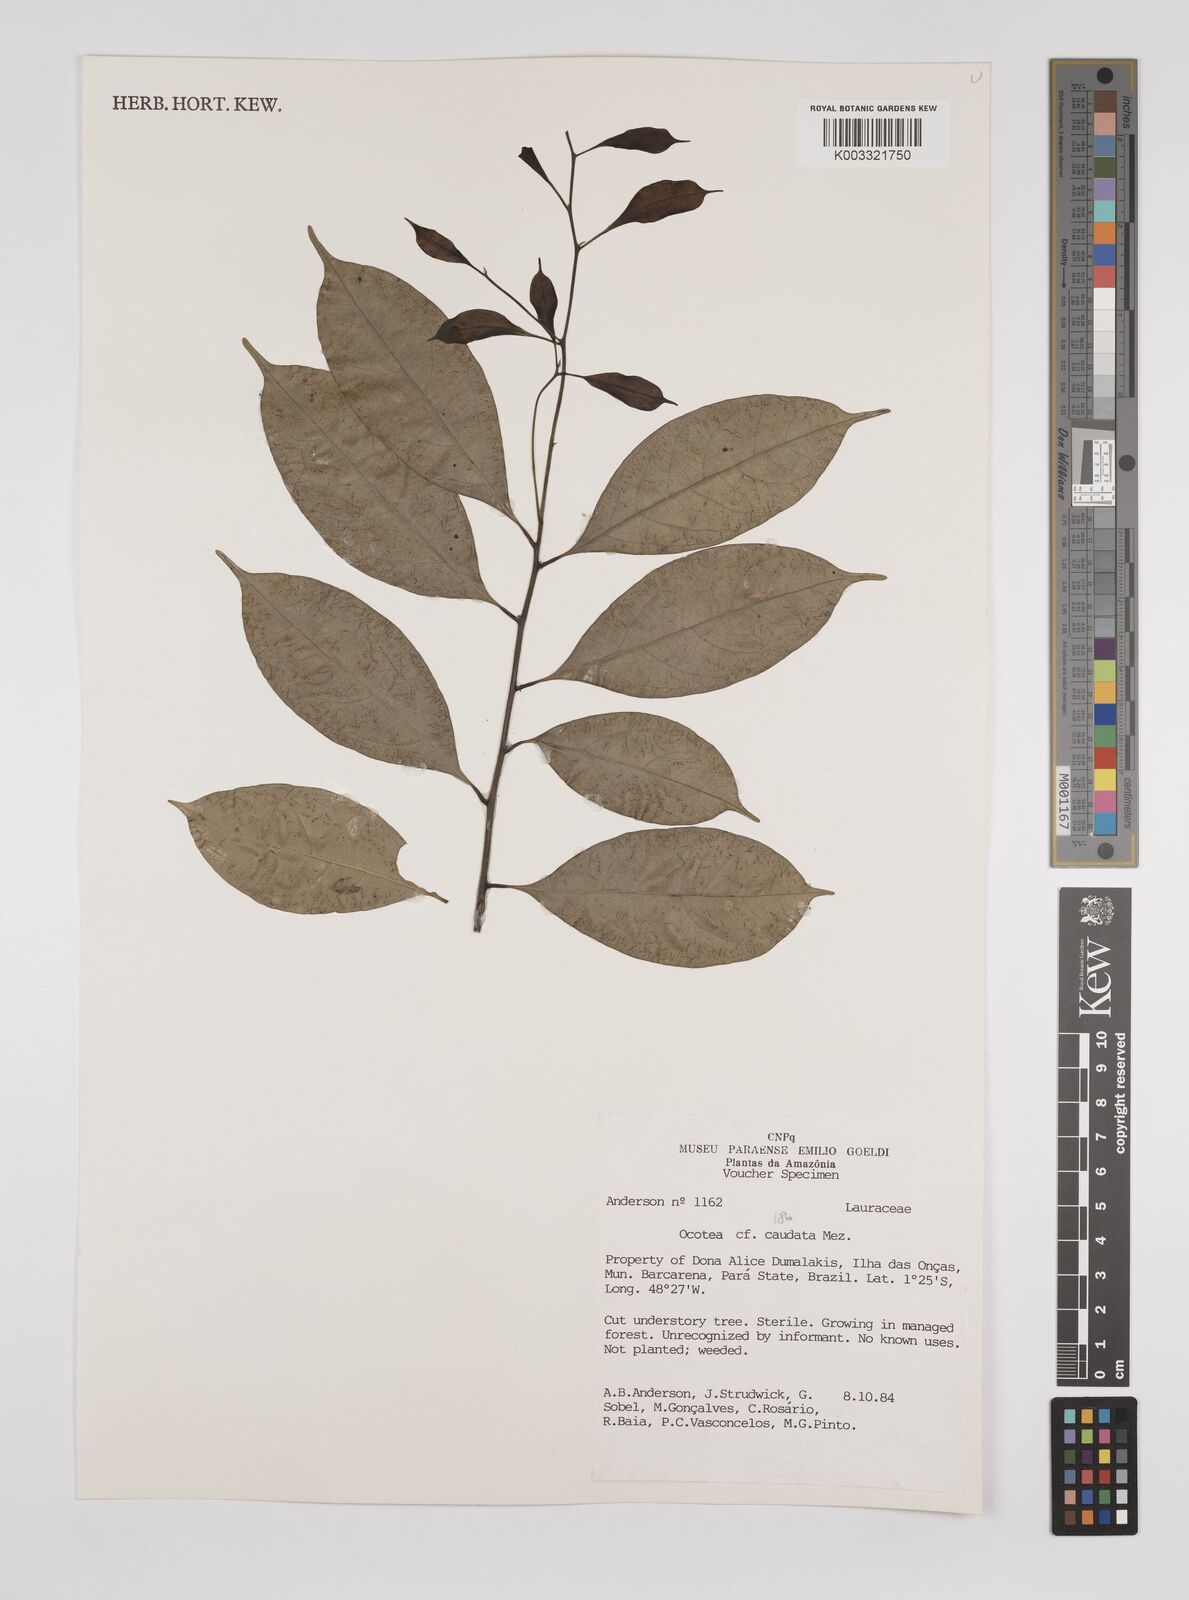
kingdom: Plantae
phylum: Tracheophyta
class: Magnoliopsida
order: Laurales
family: Lauraceae
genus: Ocotea
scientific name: Ocotea leptobotra
